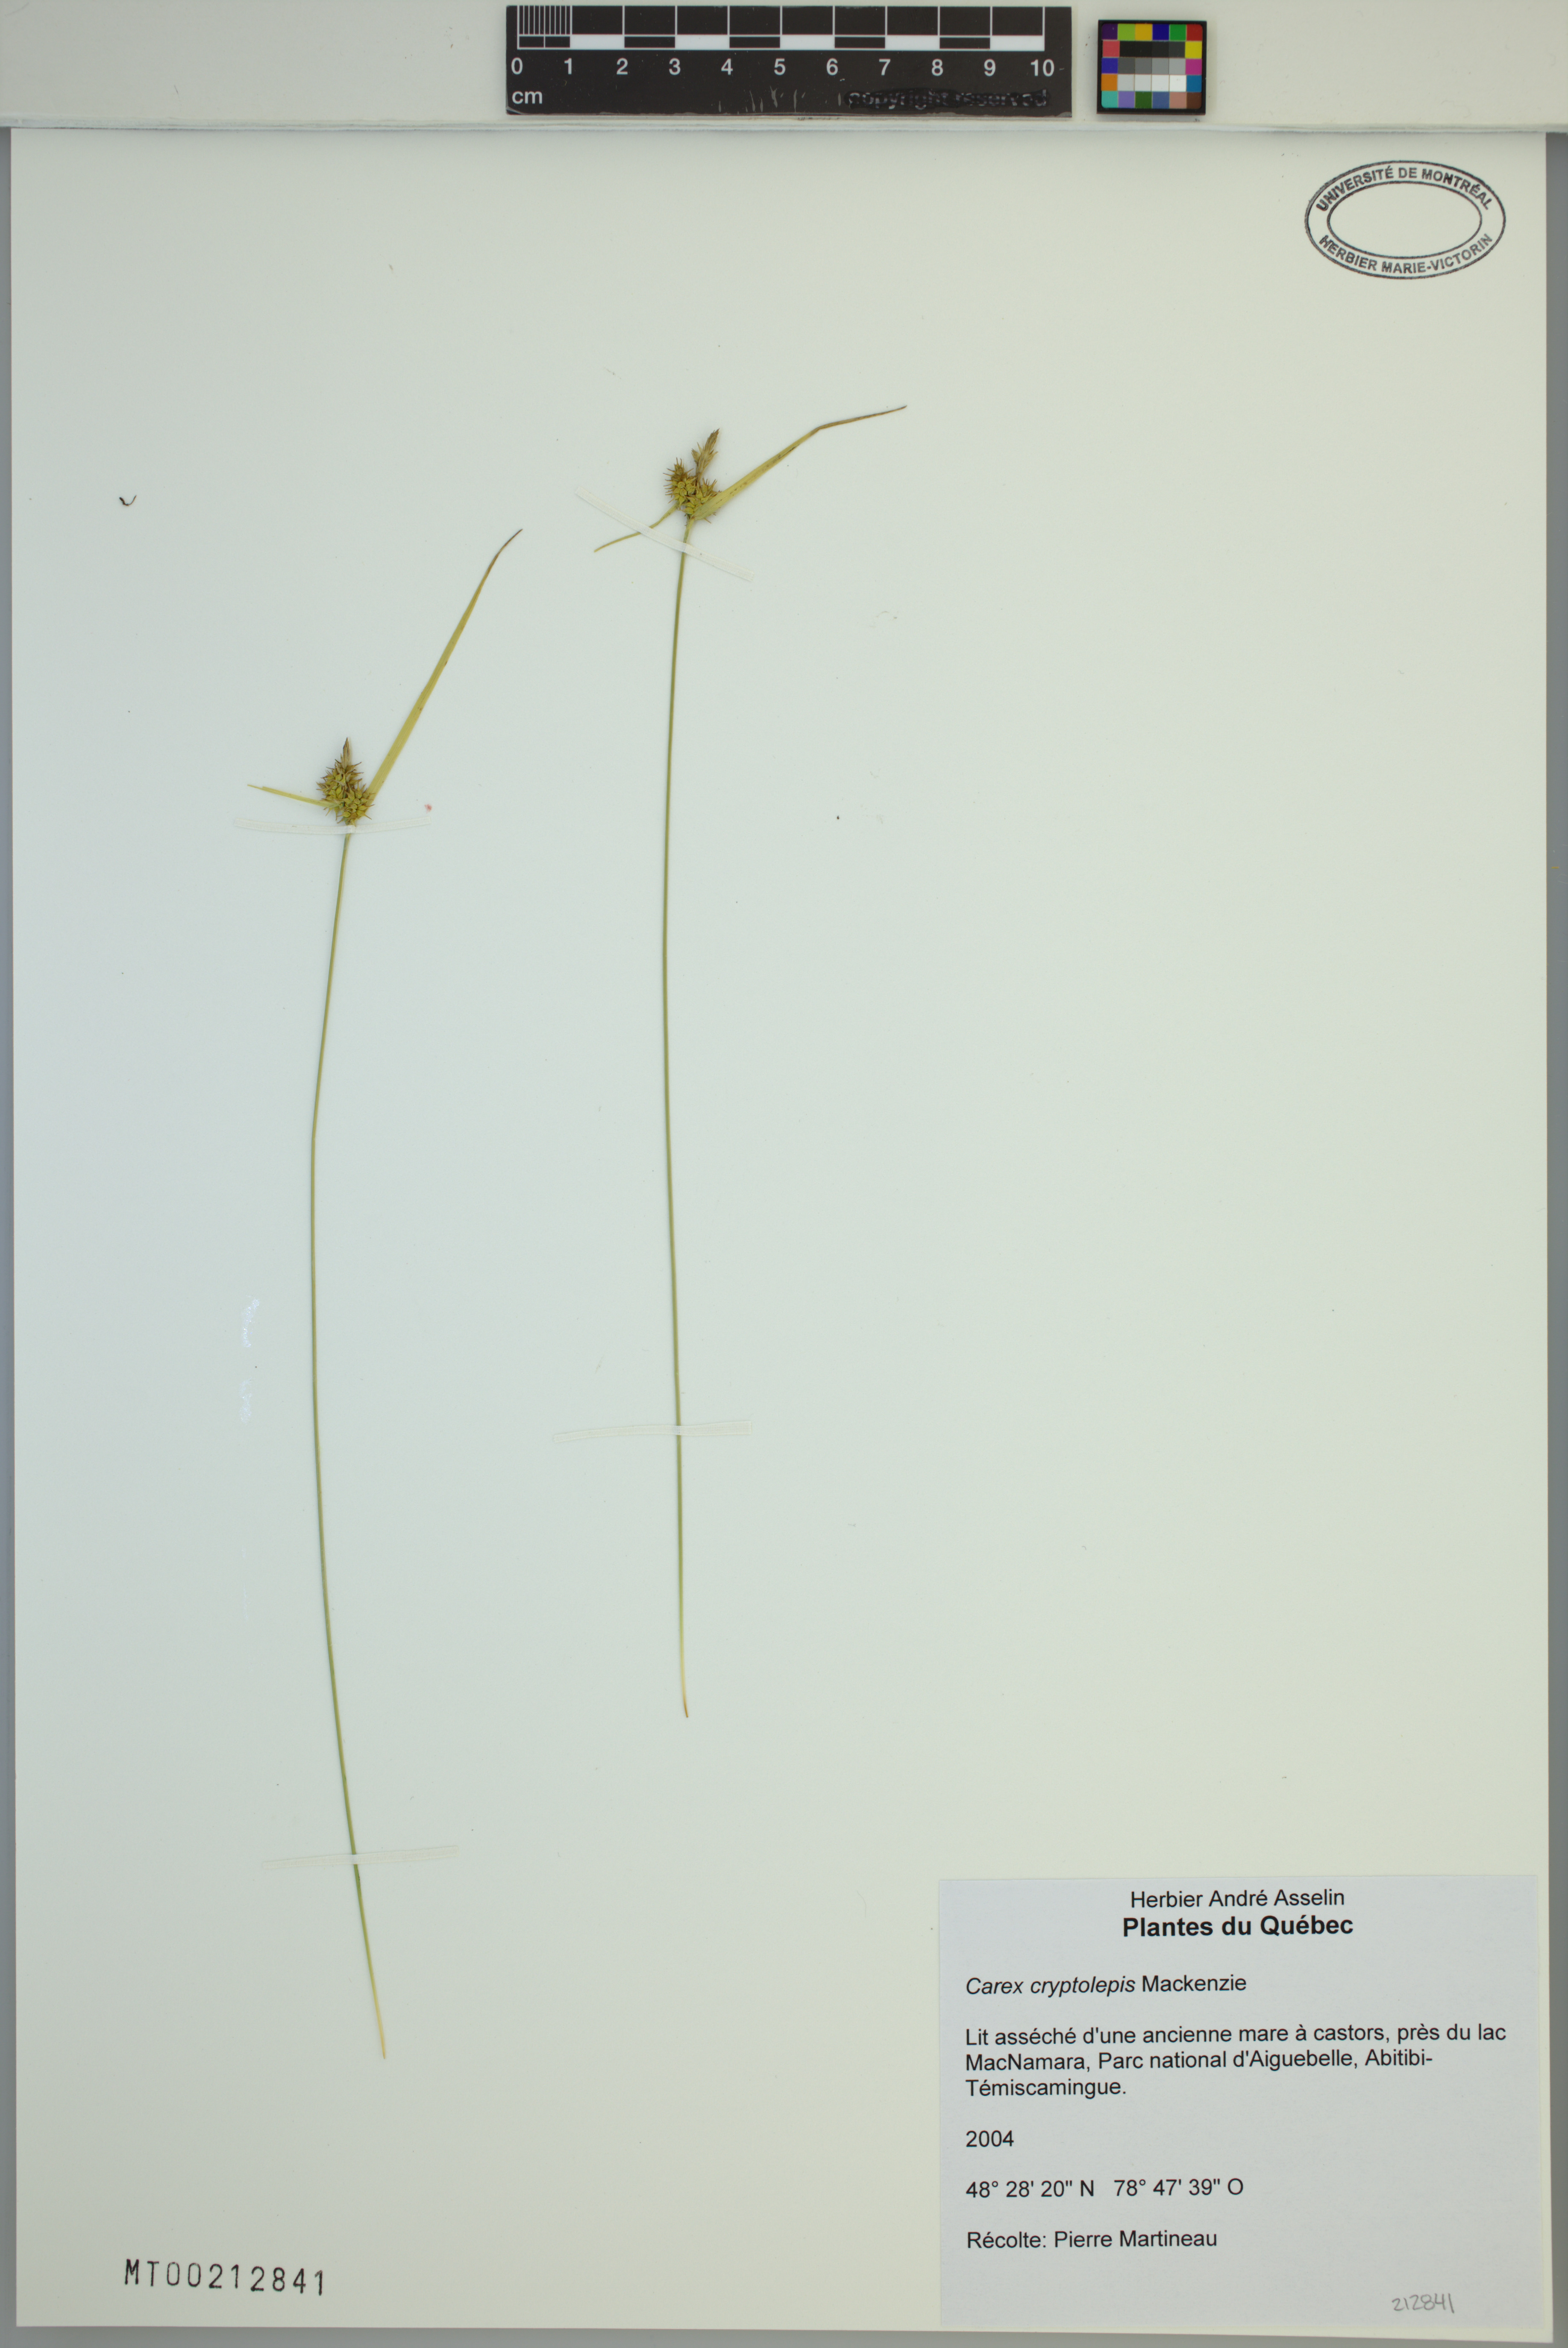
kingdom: Plantae
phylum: Tracheophyta
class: Liliopsida
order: Poales
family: Cyperaceae
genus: Carex
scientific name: Carex cryptolepis
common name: Northeastern sedge
